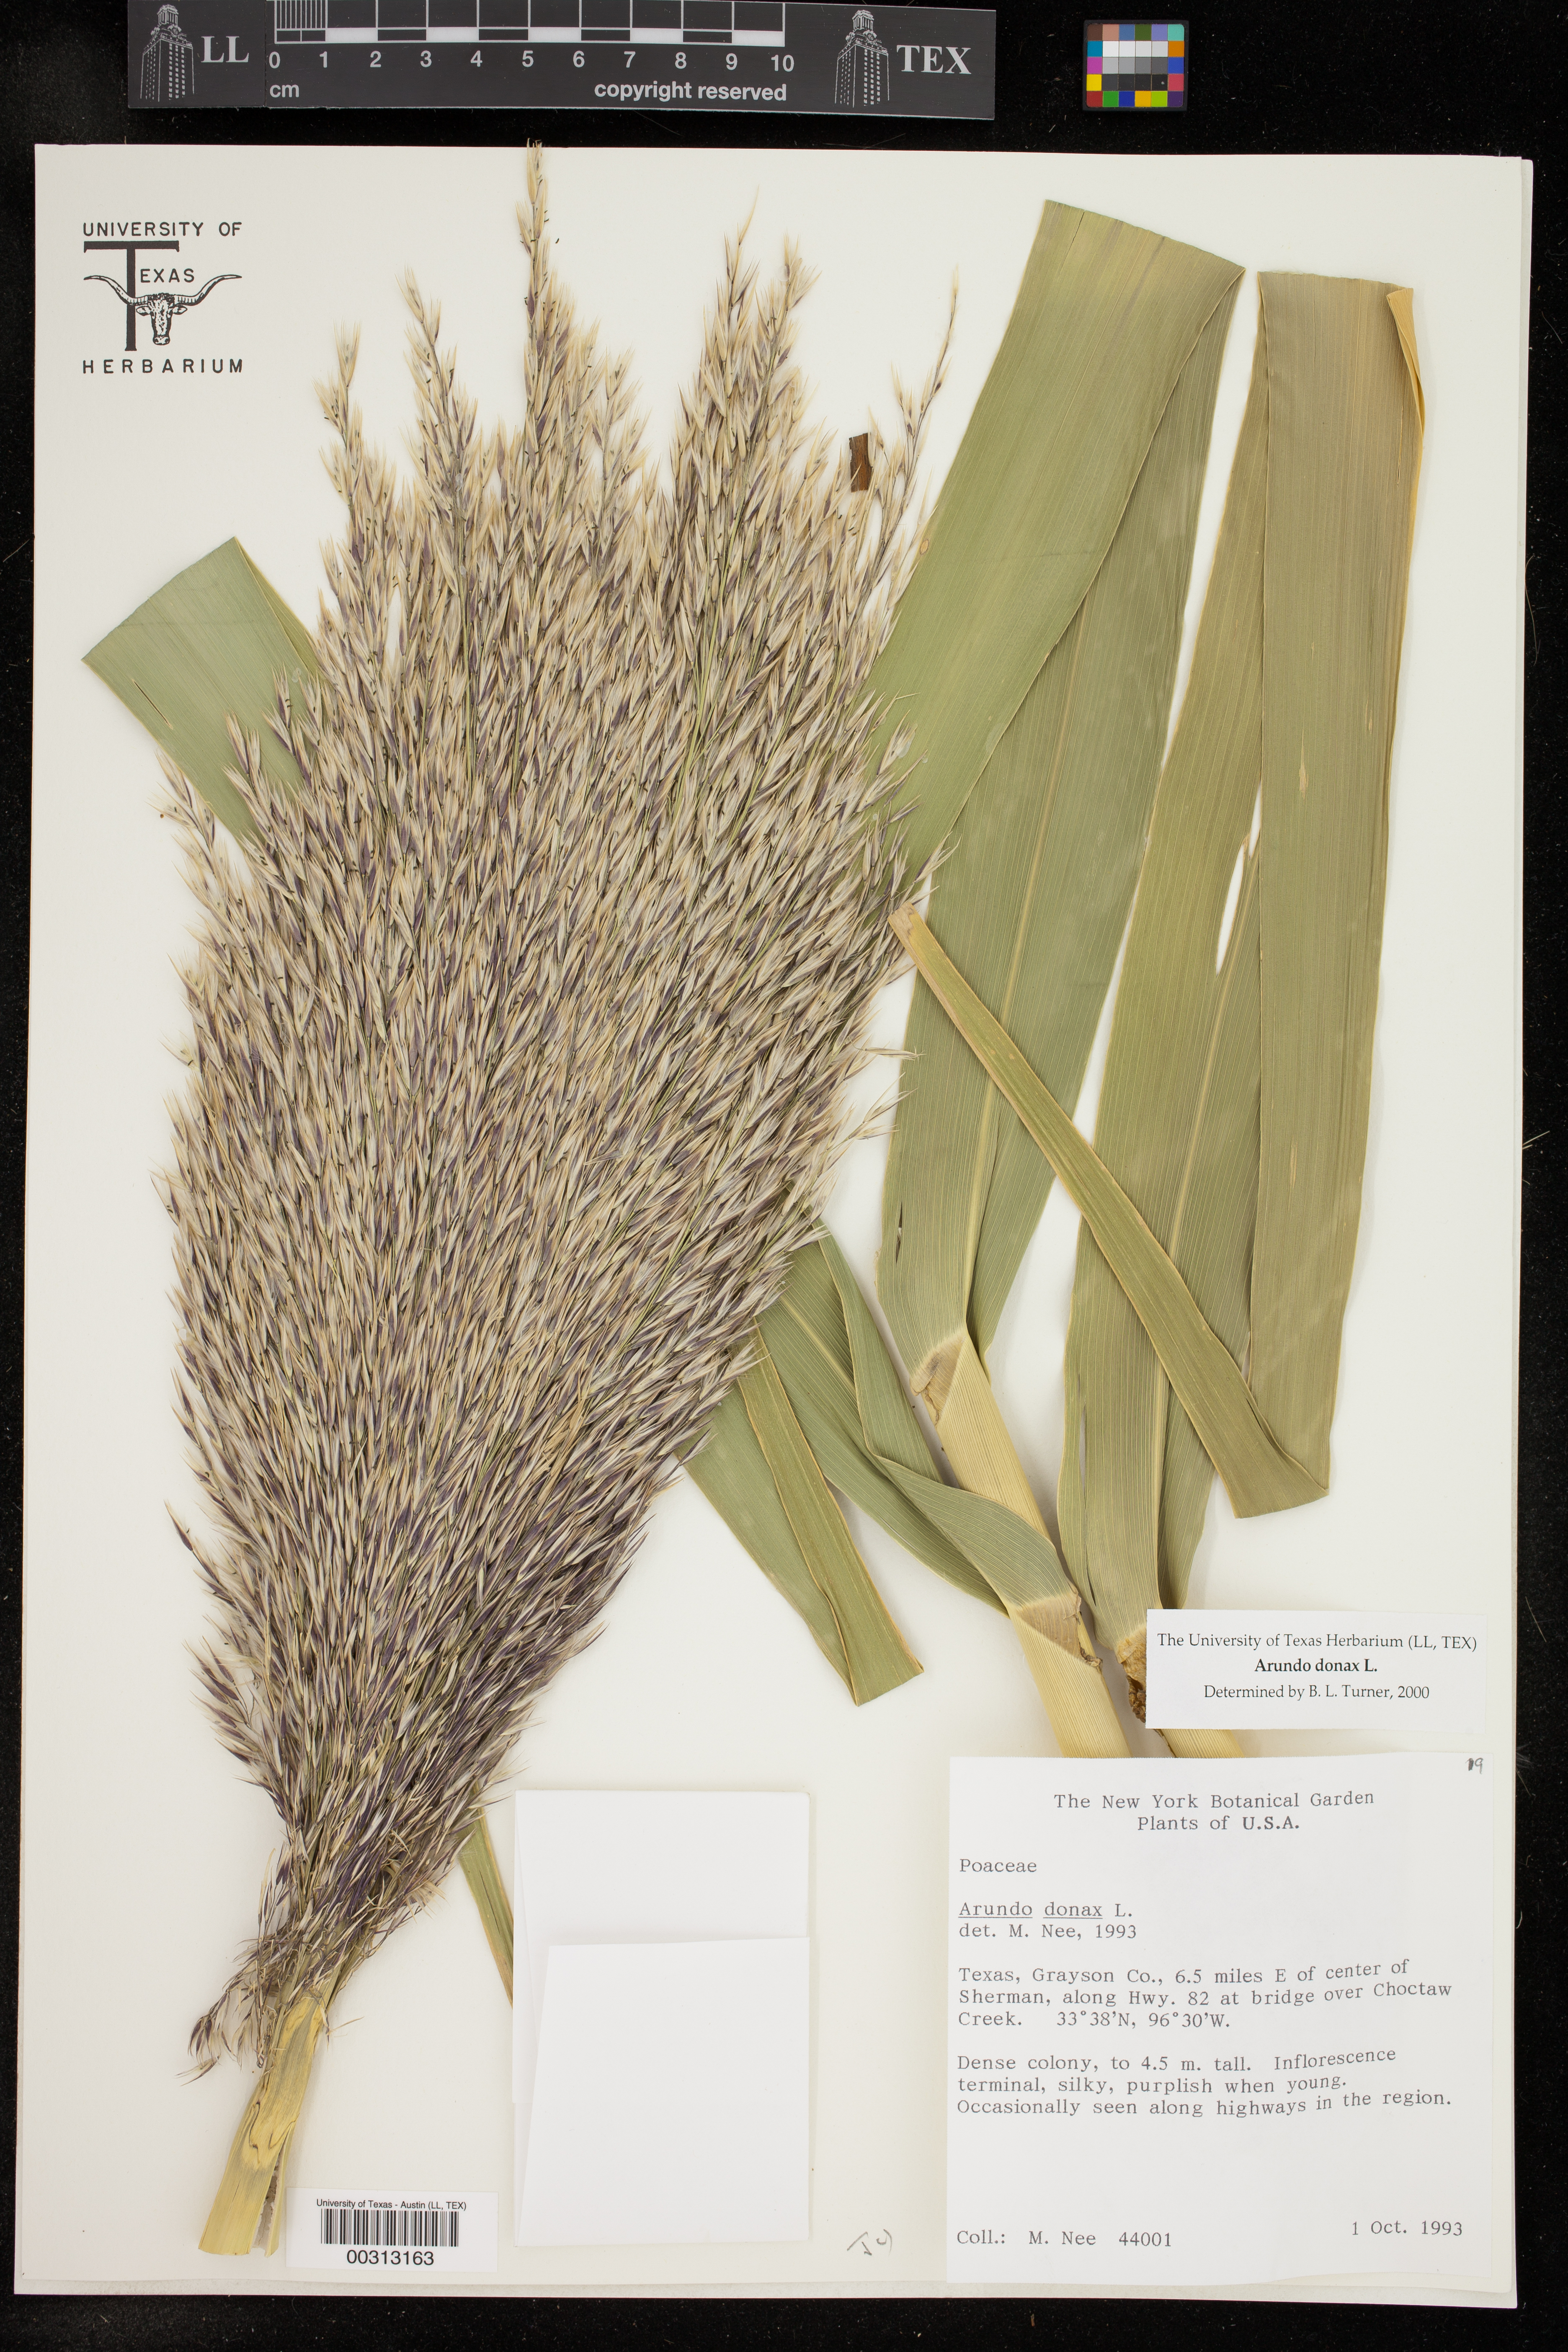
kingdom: Plantae
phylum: Tracheophyta
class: Liliopsida
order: Poales
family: Poaceae
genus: Arundo
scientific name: Arundo donax
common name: Giant reed
